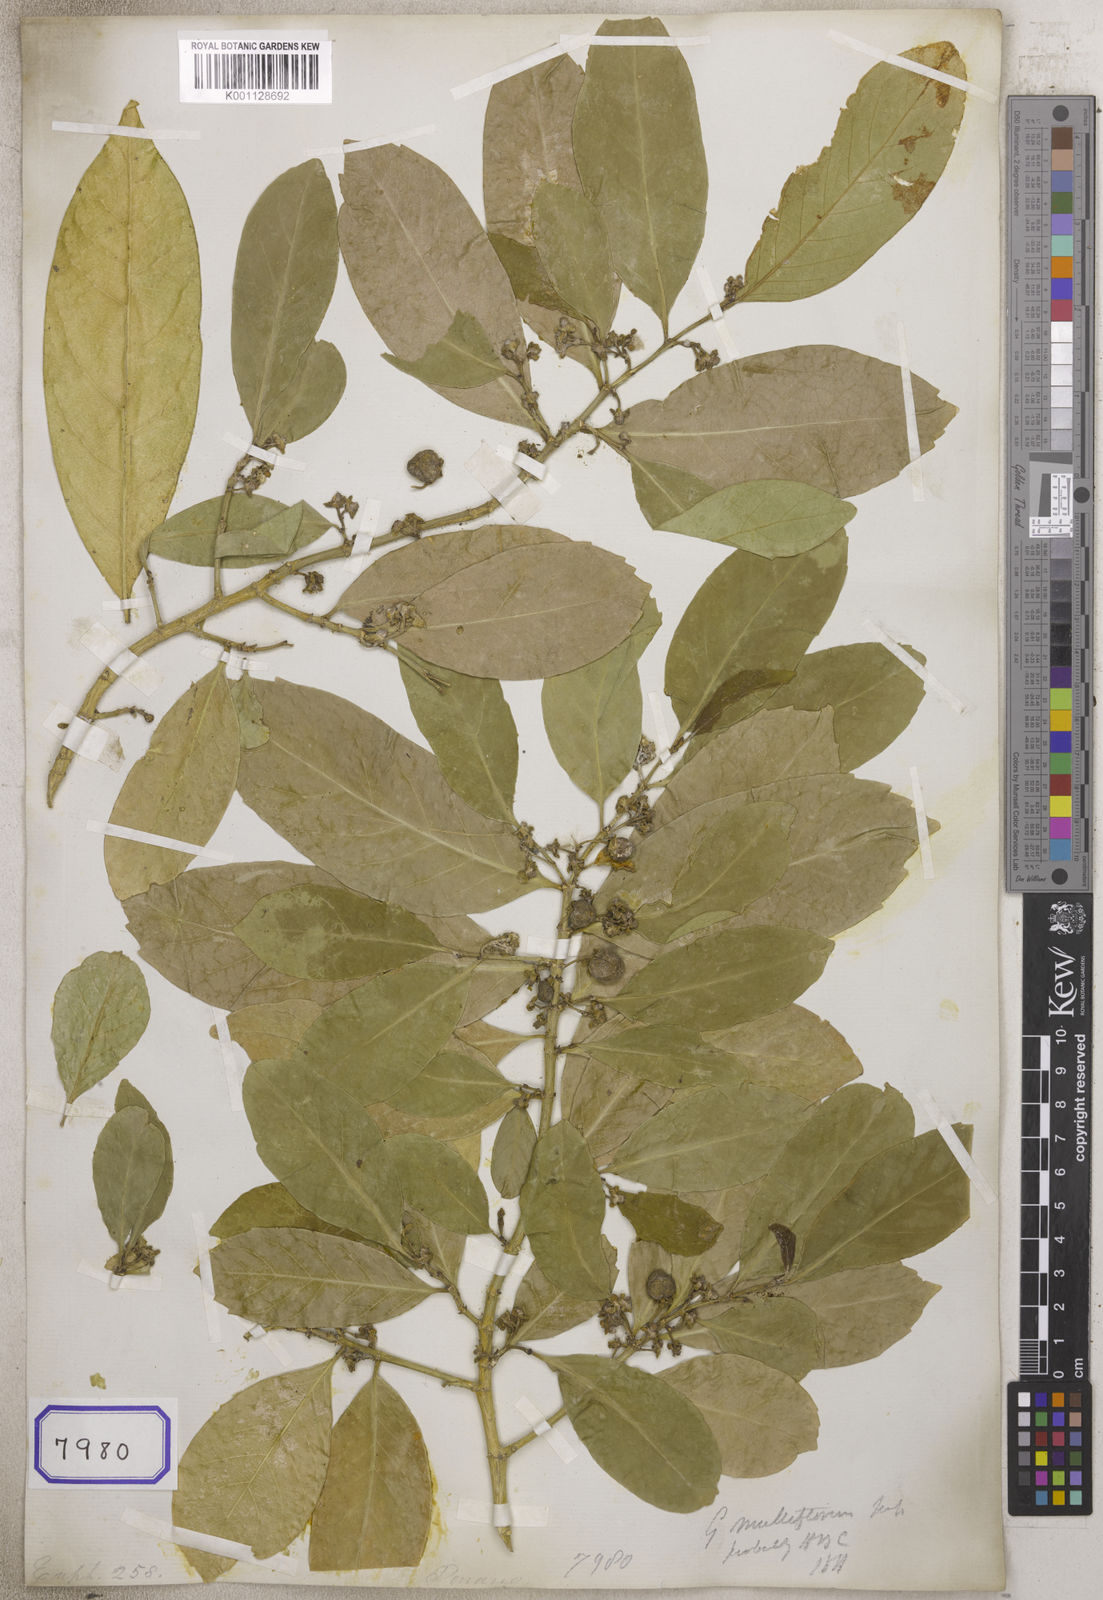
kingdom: Plantae
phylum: Tracheophyta
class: Magnoliopsida
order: Malpighiales
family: Euphorbiaceae
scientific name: Euphorbiaceae
